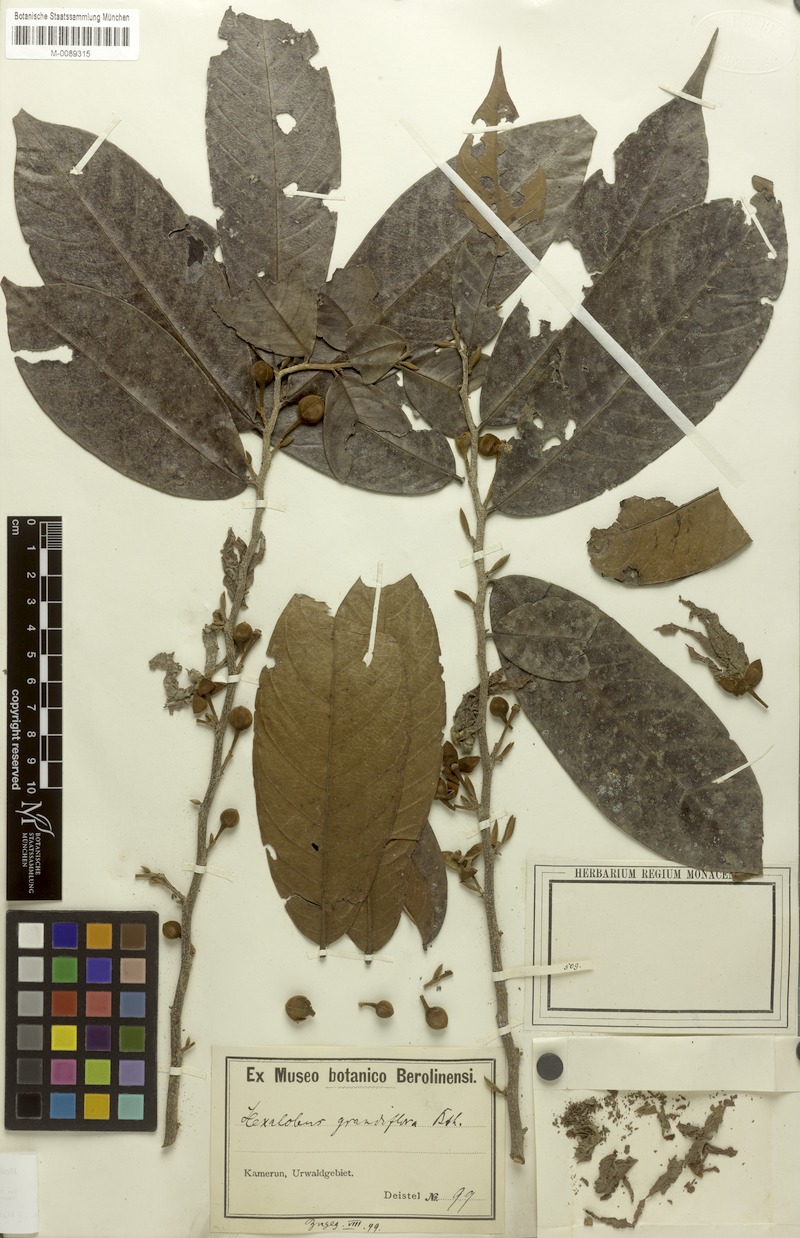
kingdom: Plantae
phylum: Tracheophyta
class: Magnoliopsida
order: Magnoliales
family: Annonaceae
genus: Hexalobus
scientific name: Hexalobus crispiflorus
